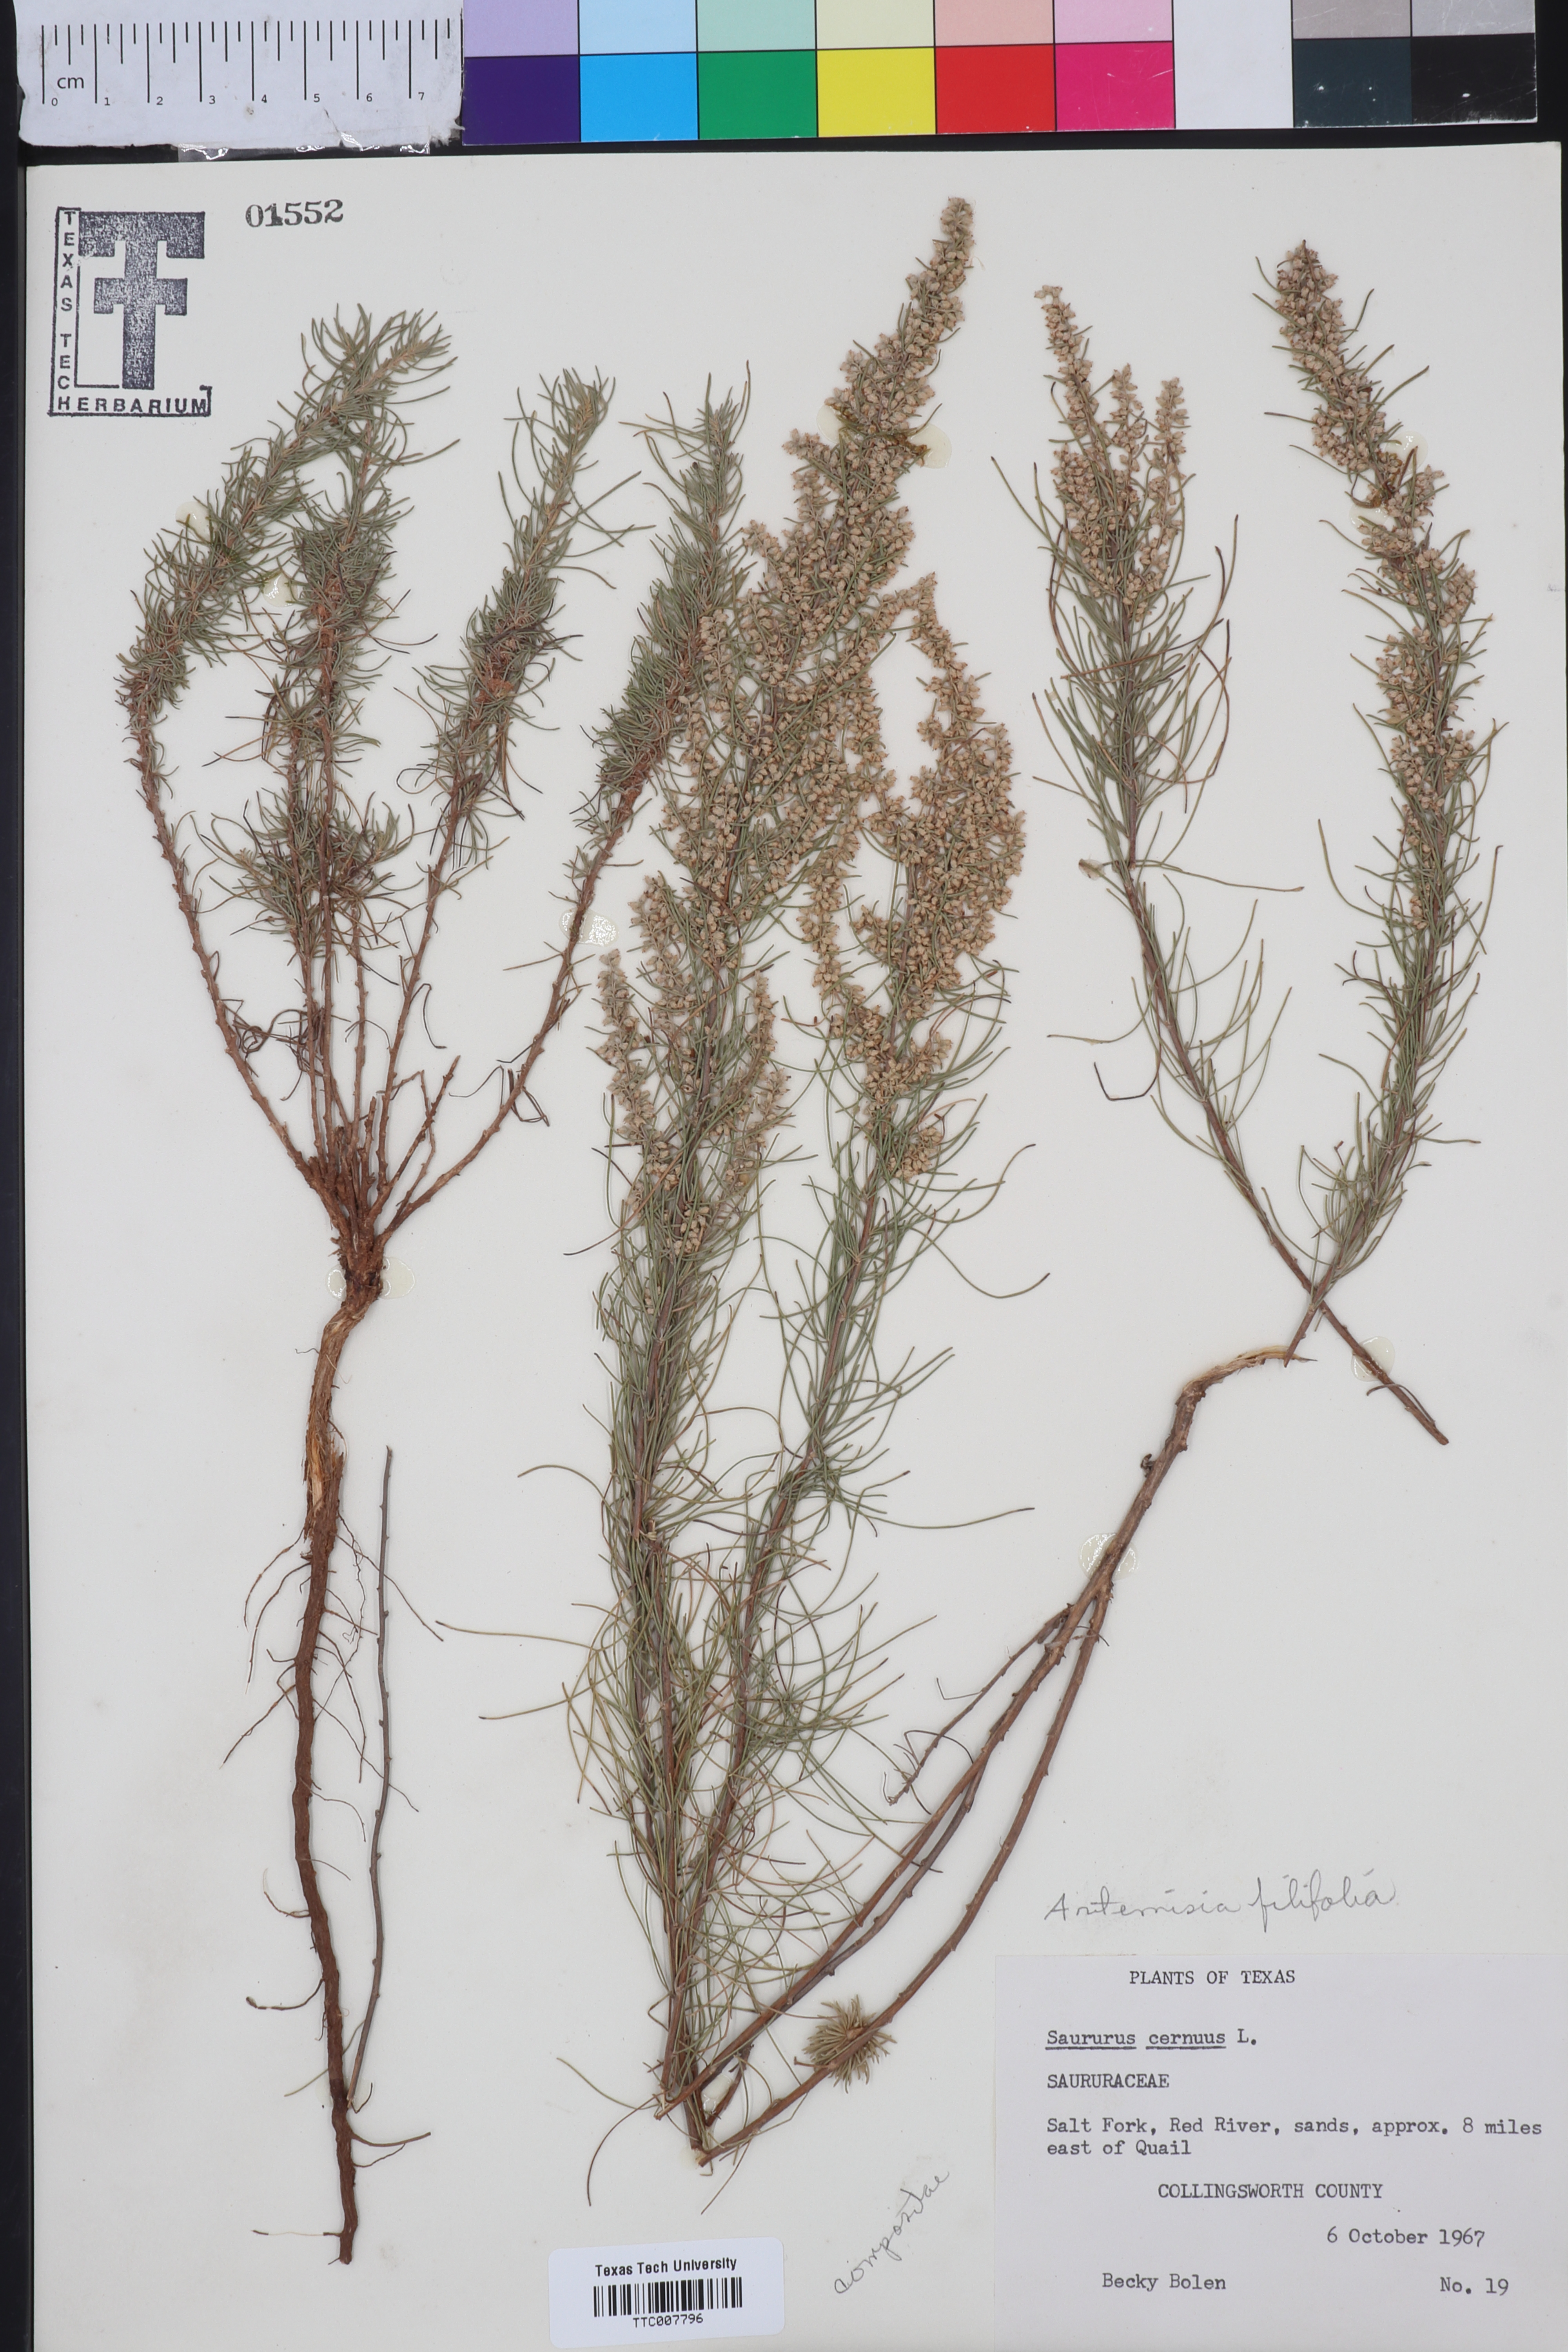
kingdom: Plantae
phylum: Tracheophyta
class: Magnoliopsida
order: Asterales
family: Asteraceae
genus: Artemisia
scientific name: Artemisia filifolia
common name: Sand-sage
